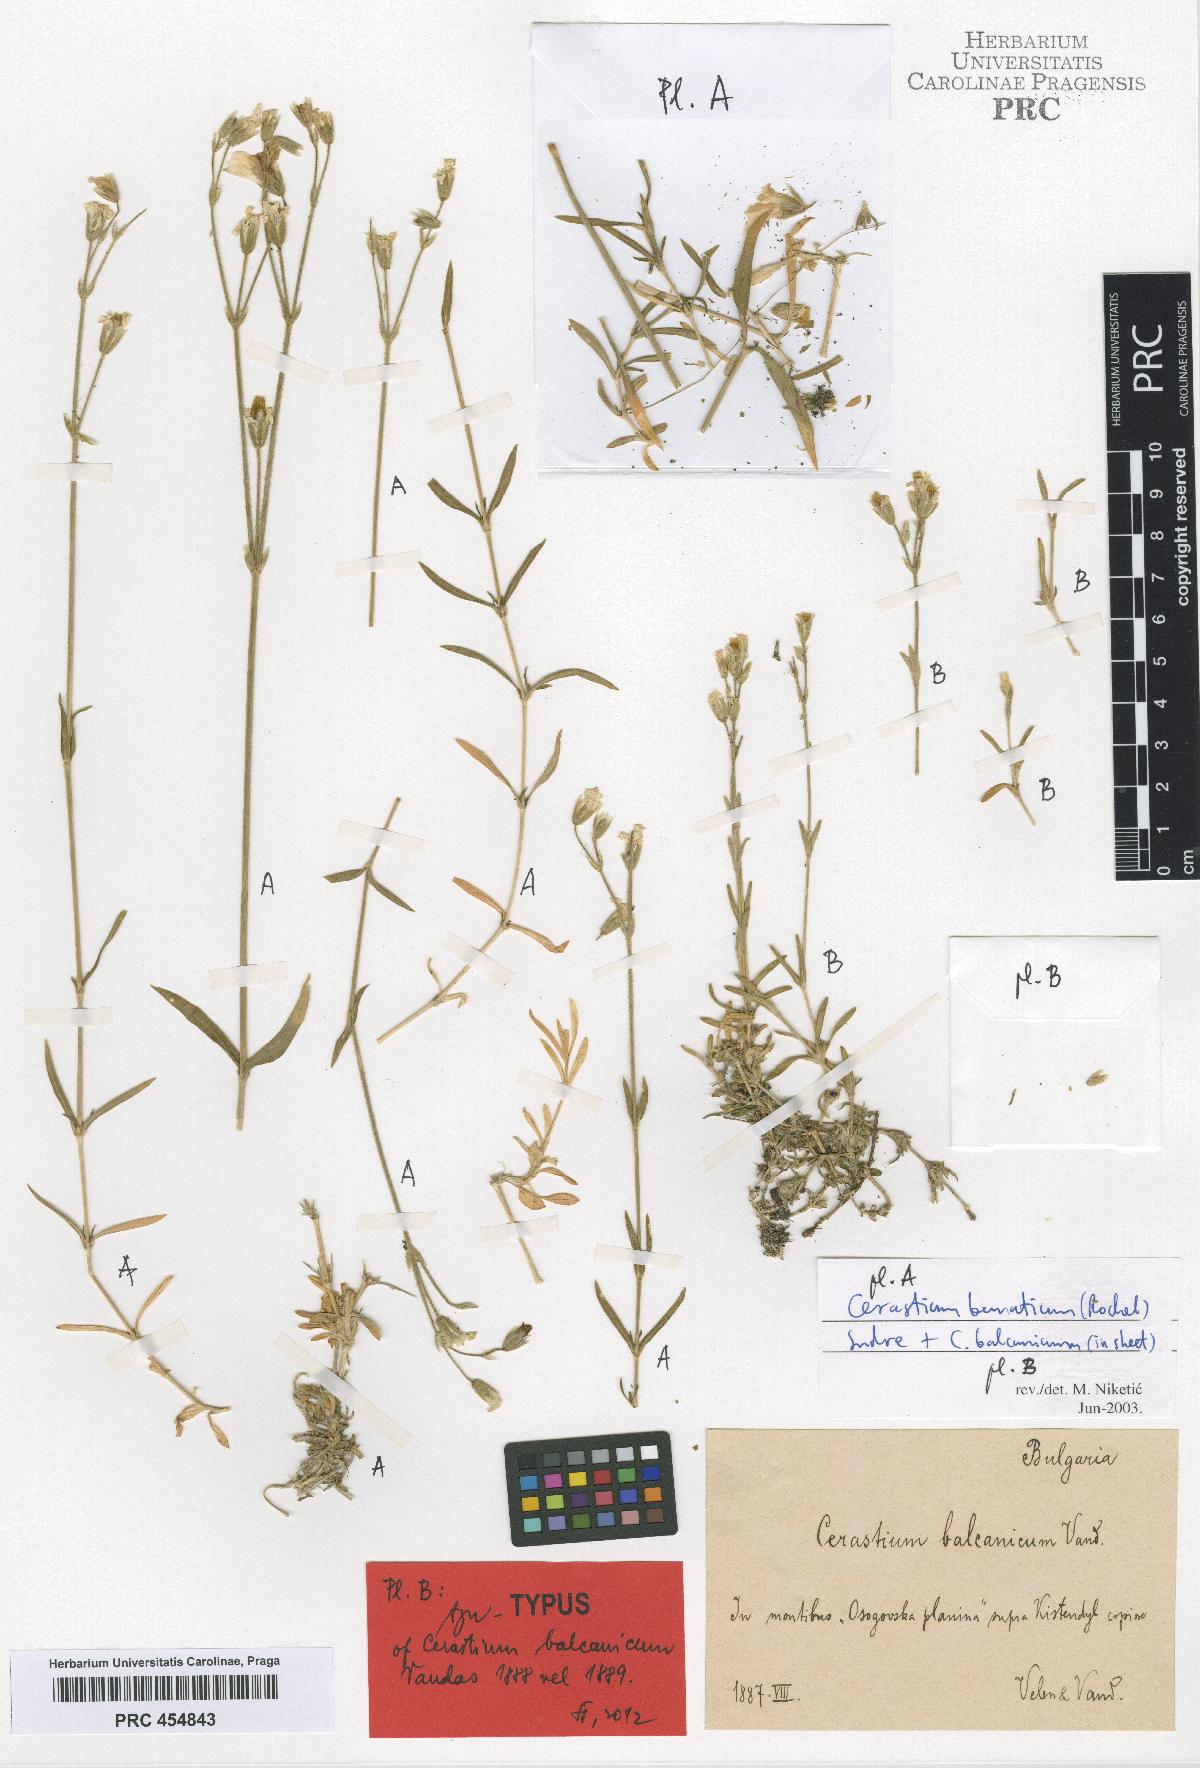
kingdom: Plantae
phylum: Tracheophyta
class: Magnoliopsida
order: Caryophyllales
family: Caryophyllaceae
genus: Cerastium
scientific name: Cerastium banaticum
